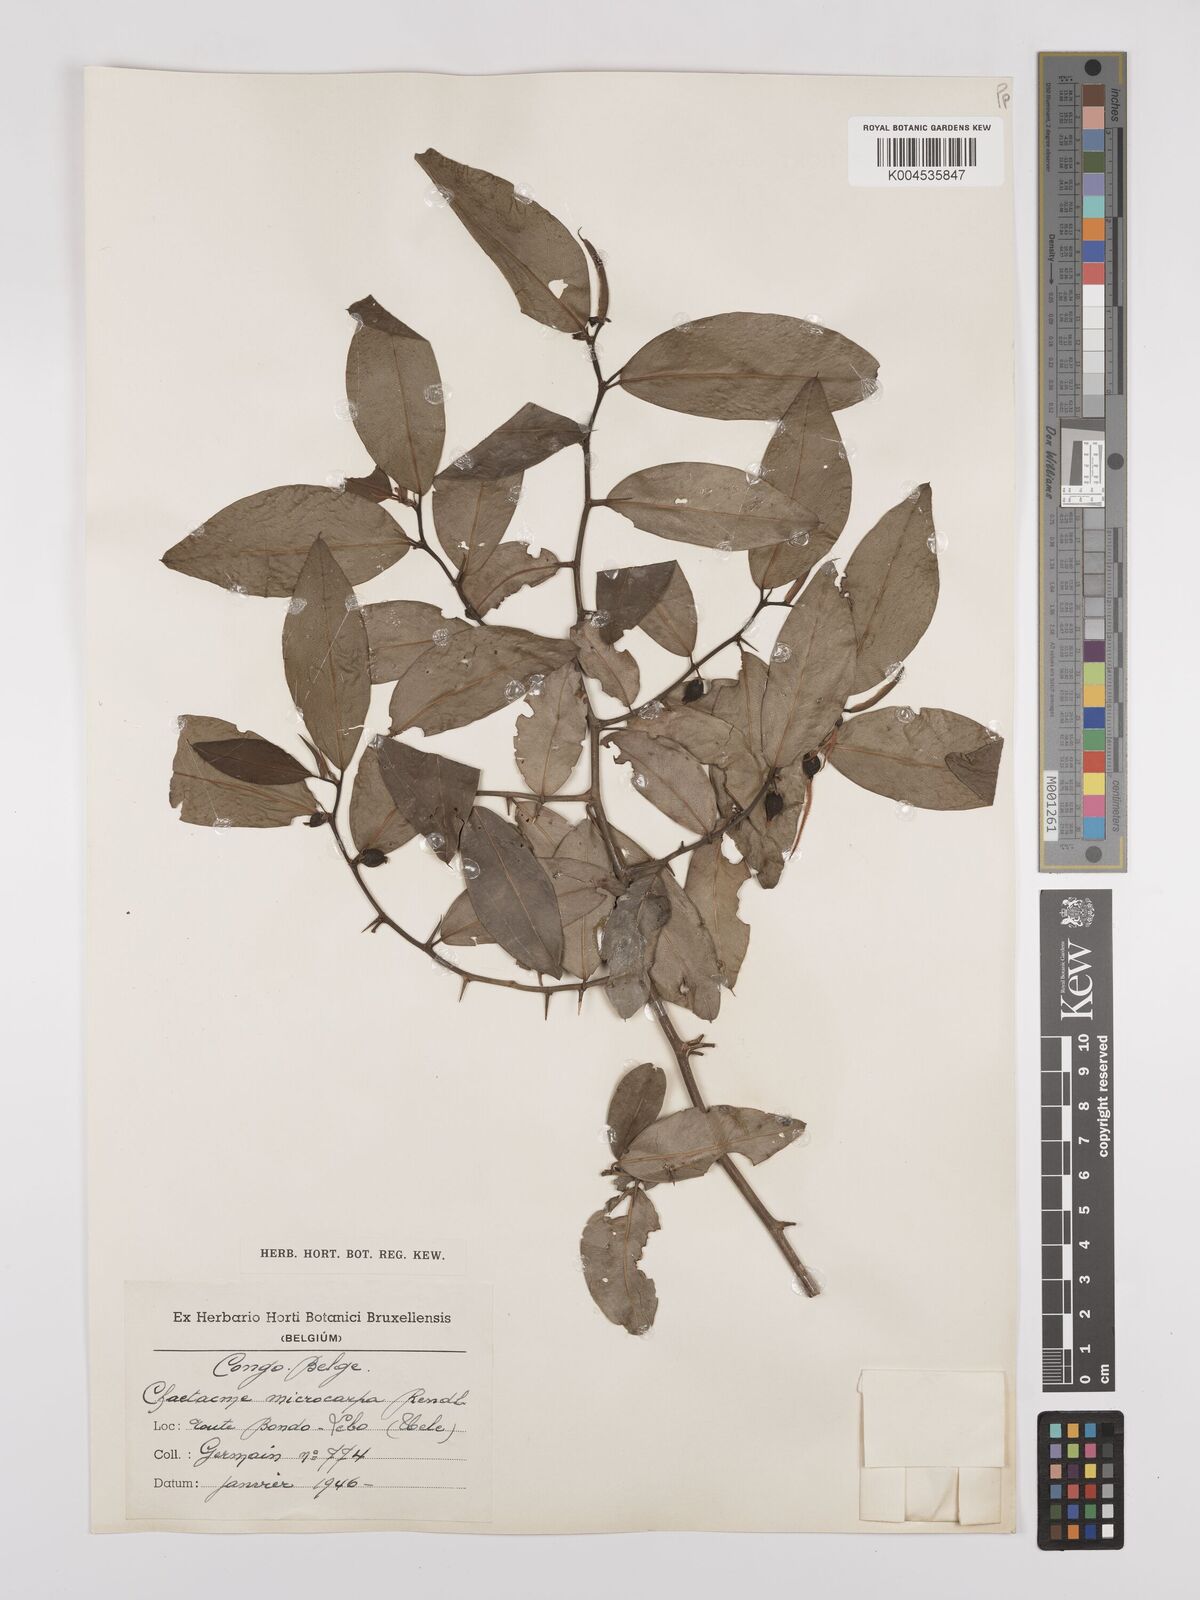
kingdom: Plantae
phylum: Tracheophyta
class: Magnoliopsida
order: Rosales
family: Cannabaceae
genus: Chaetachme
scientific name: Chaetachme aristata
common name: Thorny elm
